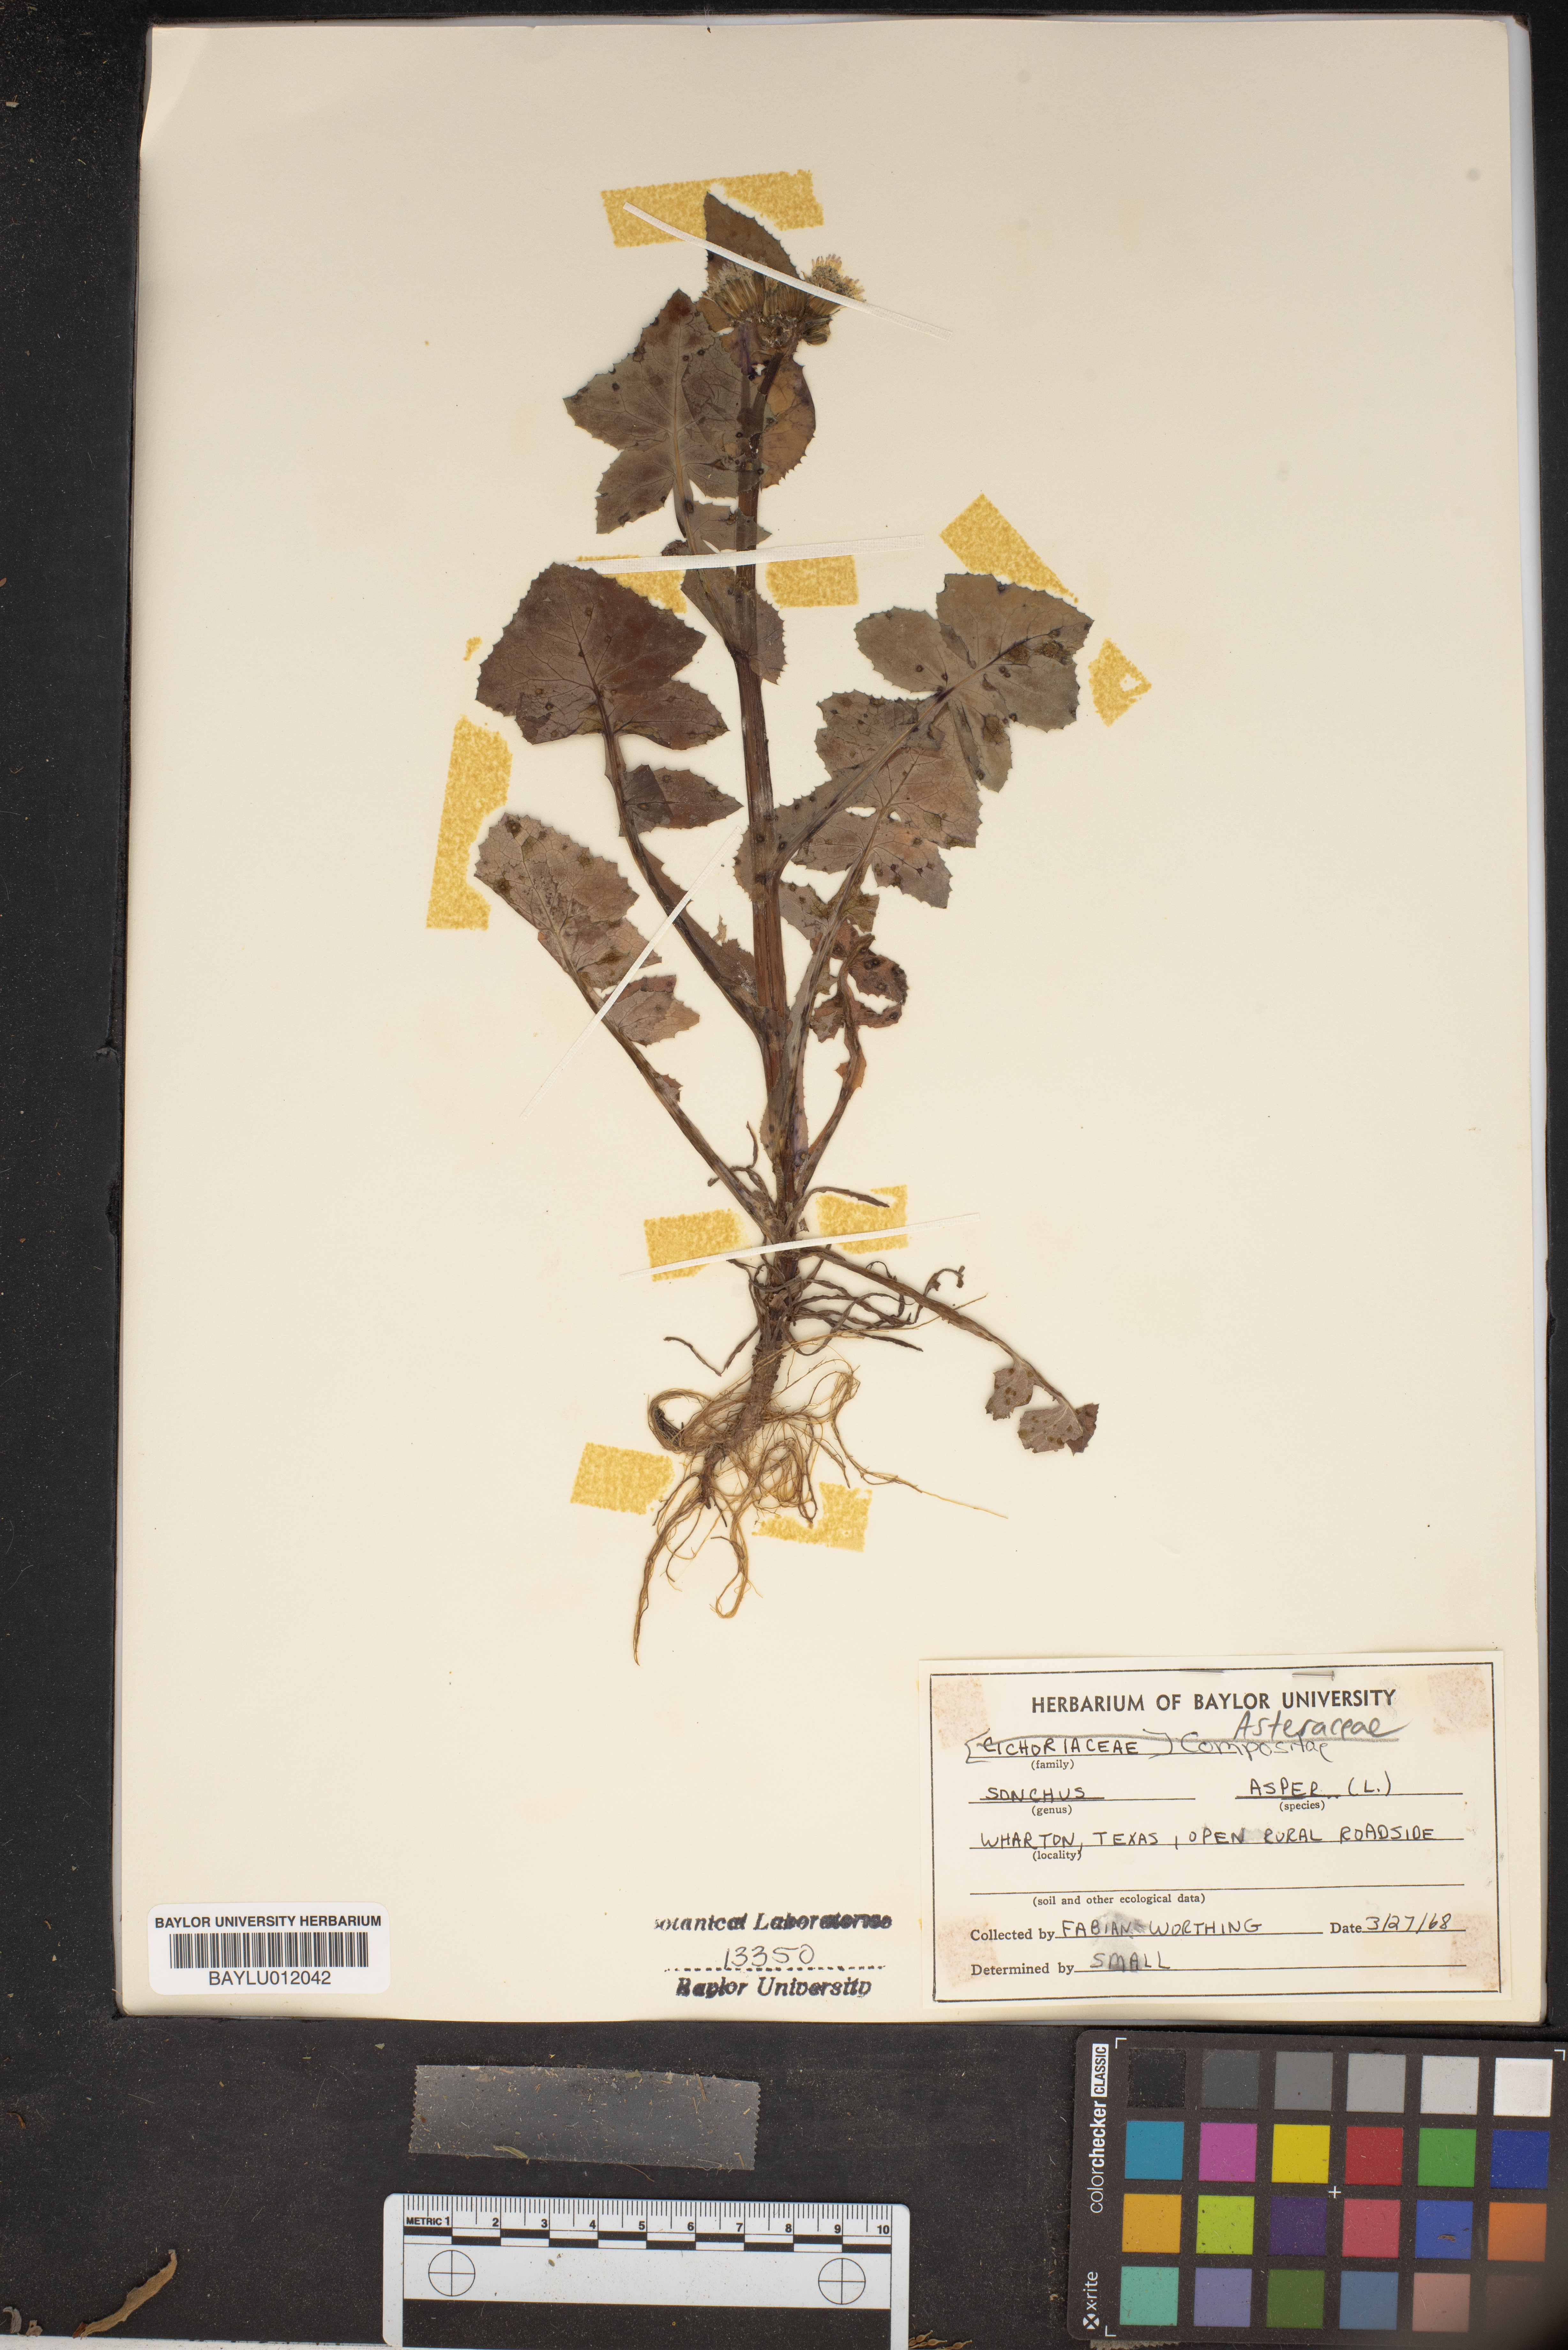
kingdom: Plantae
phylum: Tracheophyta
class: Magnoliopsida
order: Asterales
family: Asteraceae
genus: Sonchus
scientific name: Sonchus asper
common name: Prickly sow-thistle
